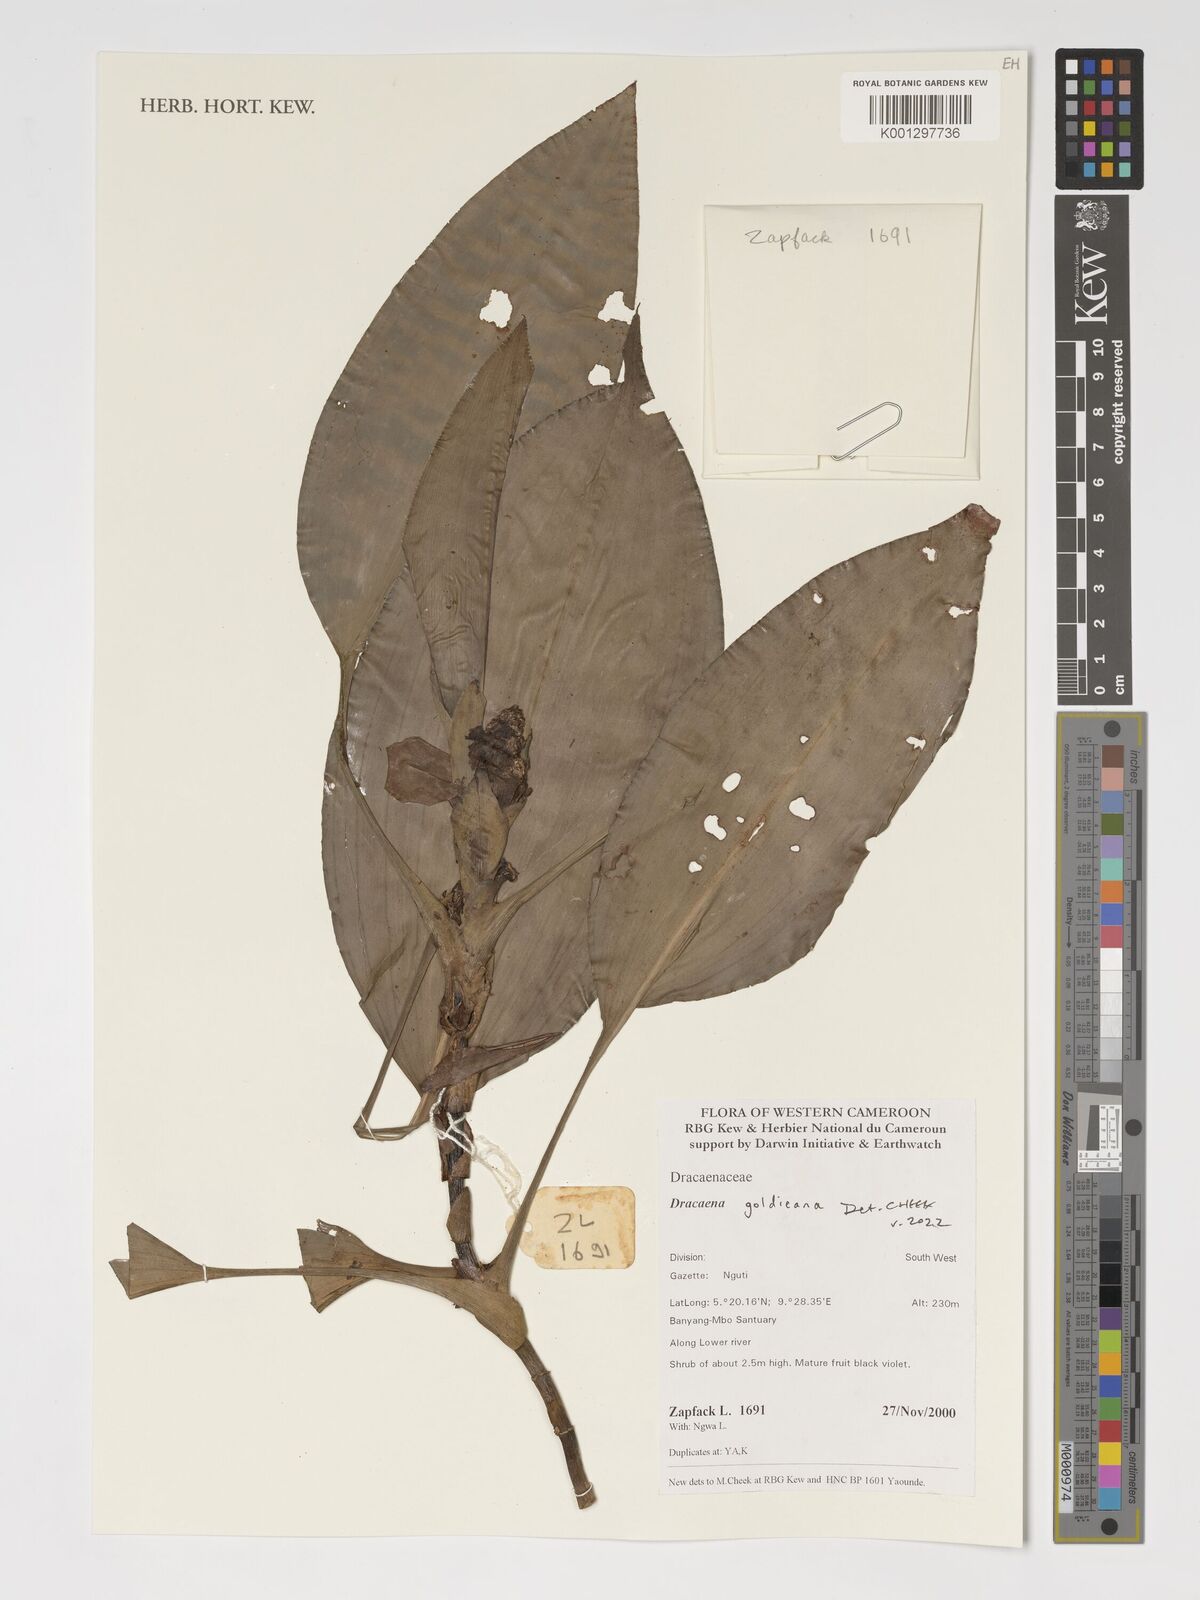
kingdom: Plantae
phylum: Tracheophyta
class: Liliopsida
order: Asparagales
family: Asparagaceae
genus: Dracaena
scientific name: Dracaena goldieana
